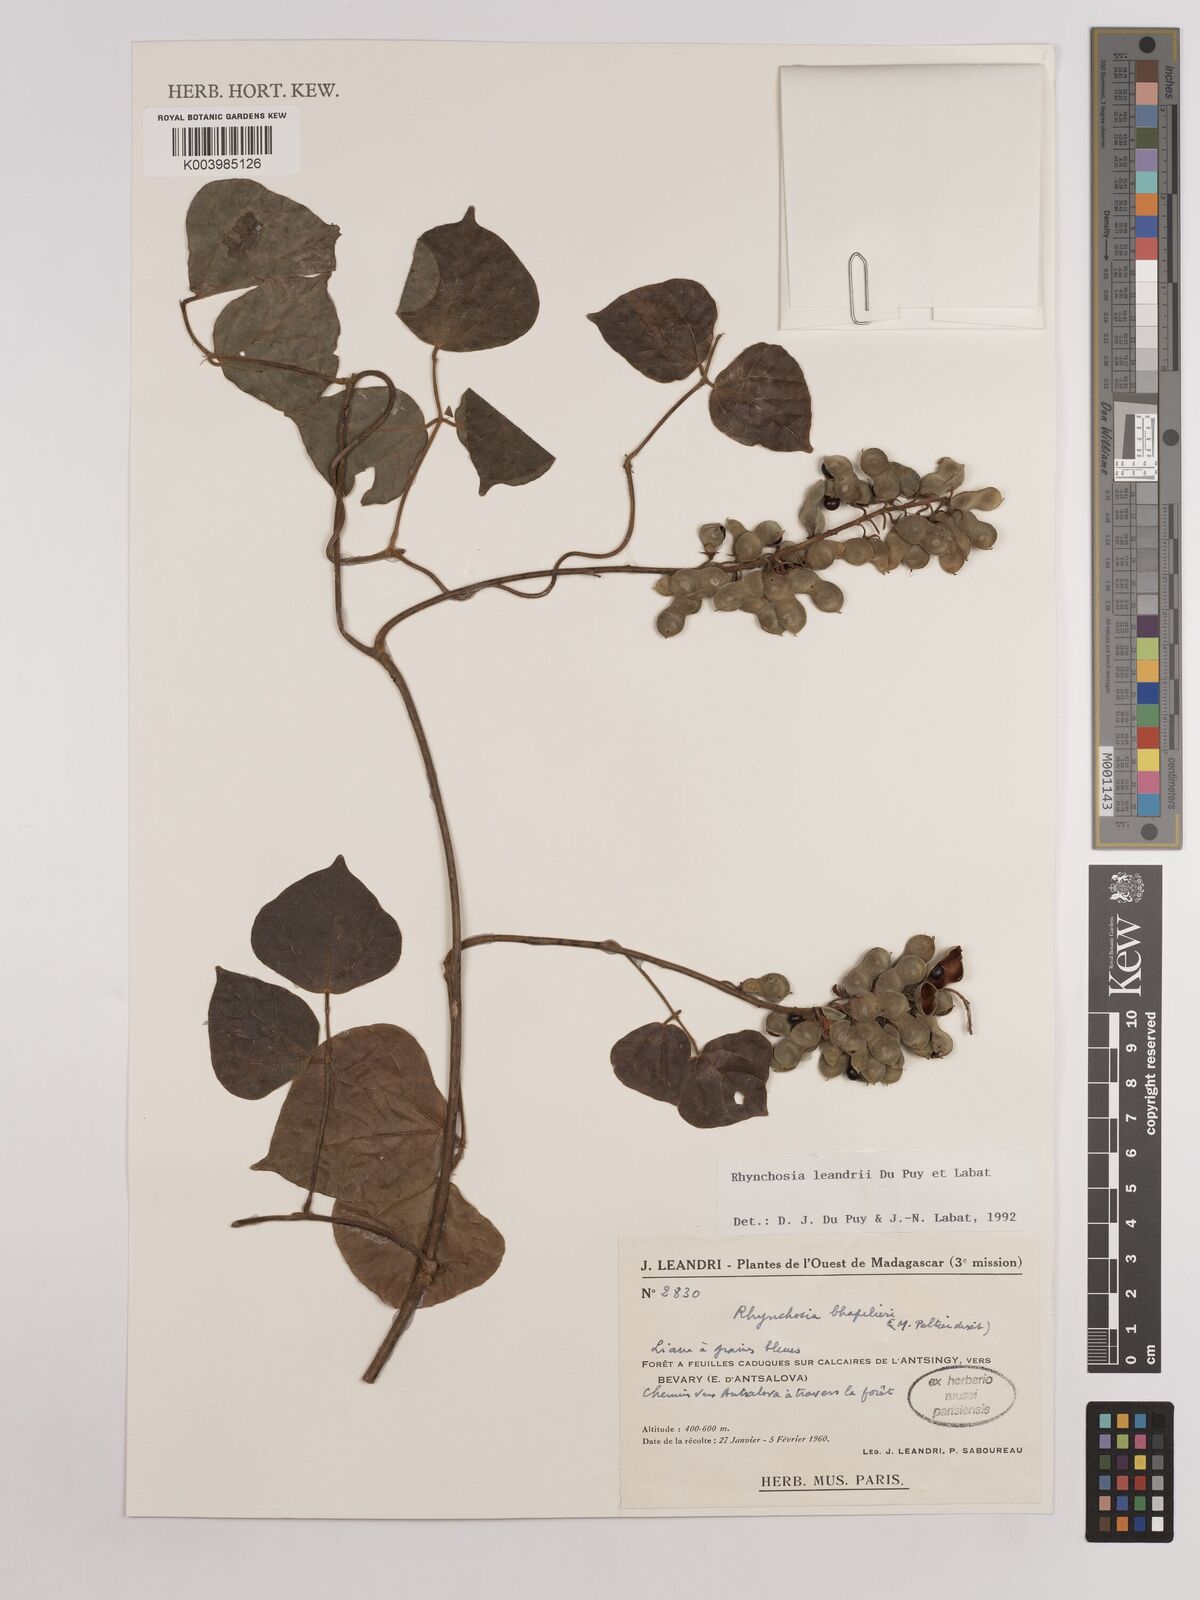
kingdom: Plantae
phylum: Tracheophyta
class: Magnoliopsida
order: Fabales
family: Fabaceae
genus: Rhynchosia
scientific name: Rhynchosia leandrii
